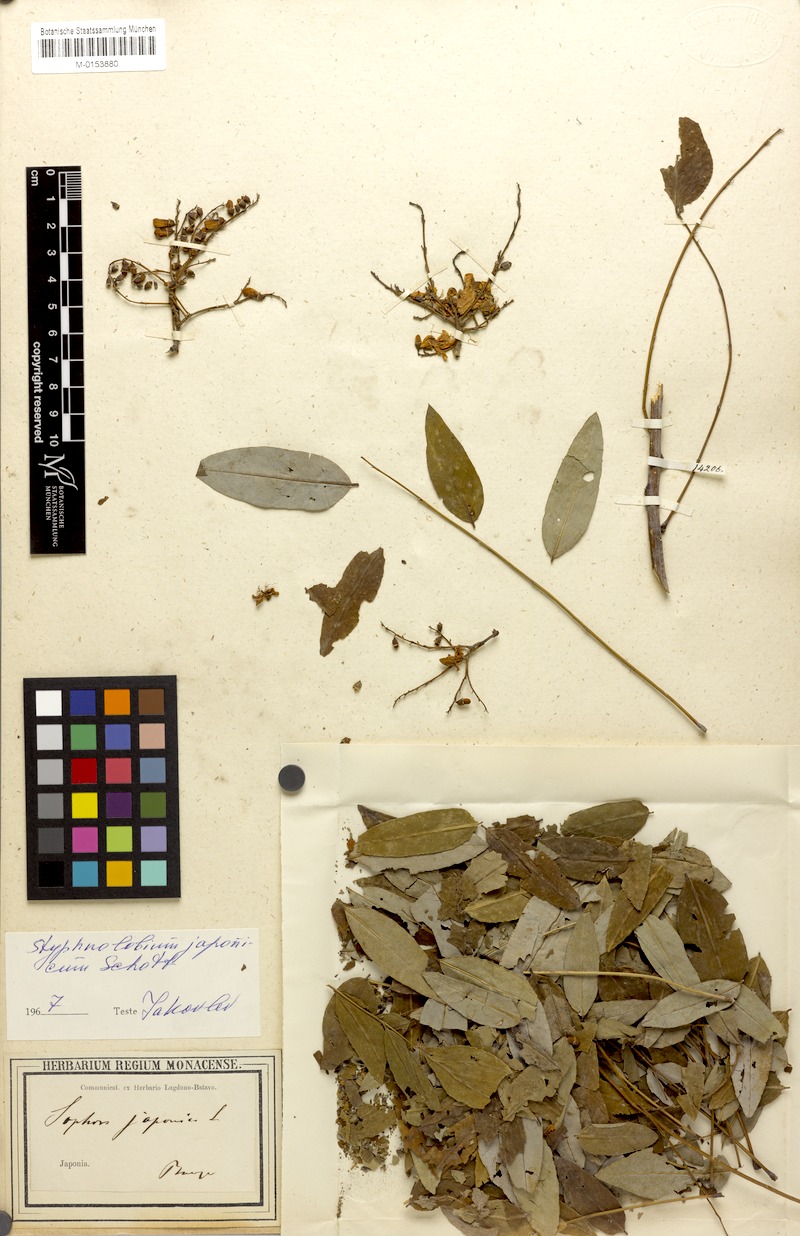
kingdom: Plantae
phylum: Tracheophyta
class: Magnoliopsida
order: Fabales
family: Fabaceae
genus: Styphnolobium
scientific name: Styphnolobium japonicum
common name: Chinese scholartree
